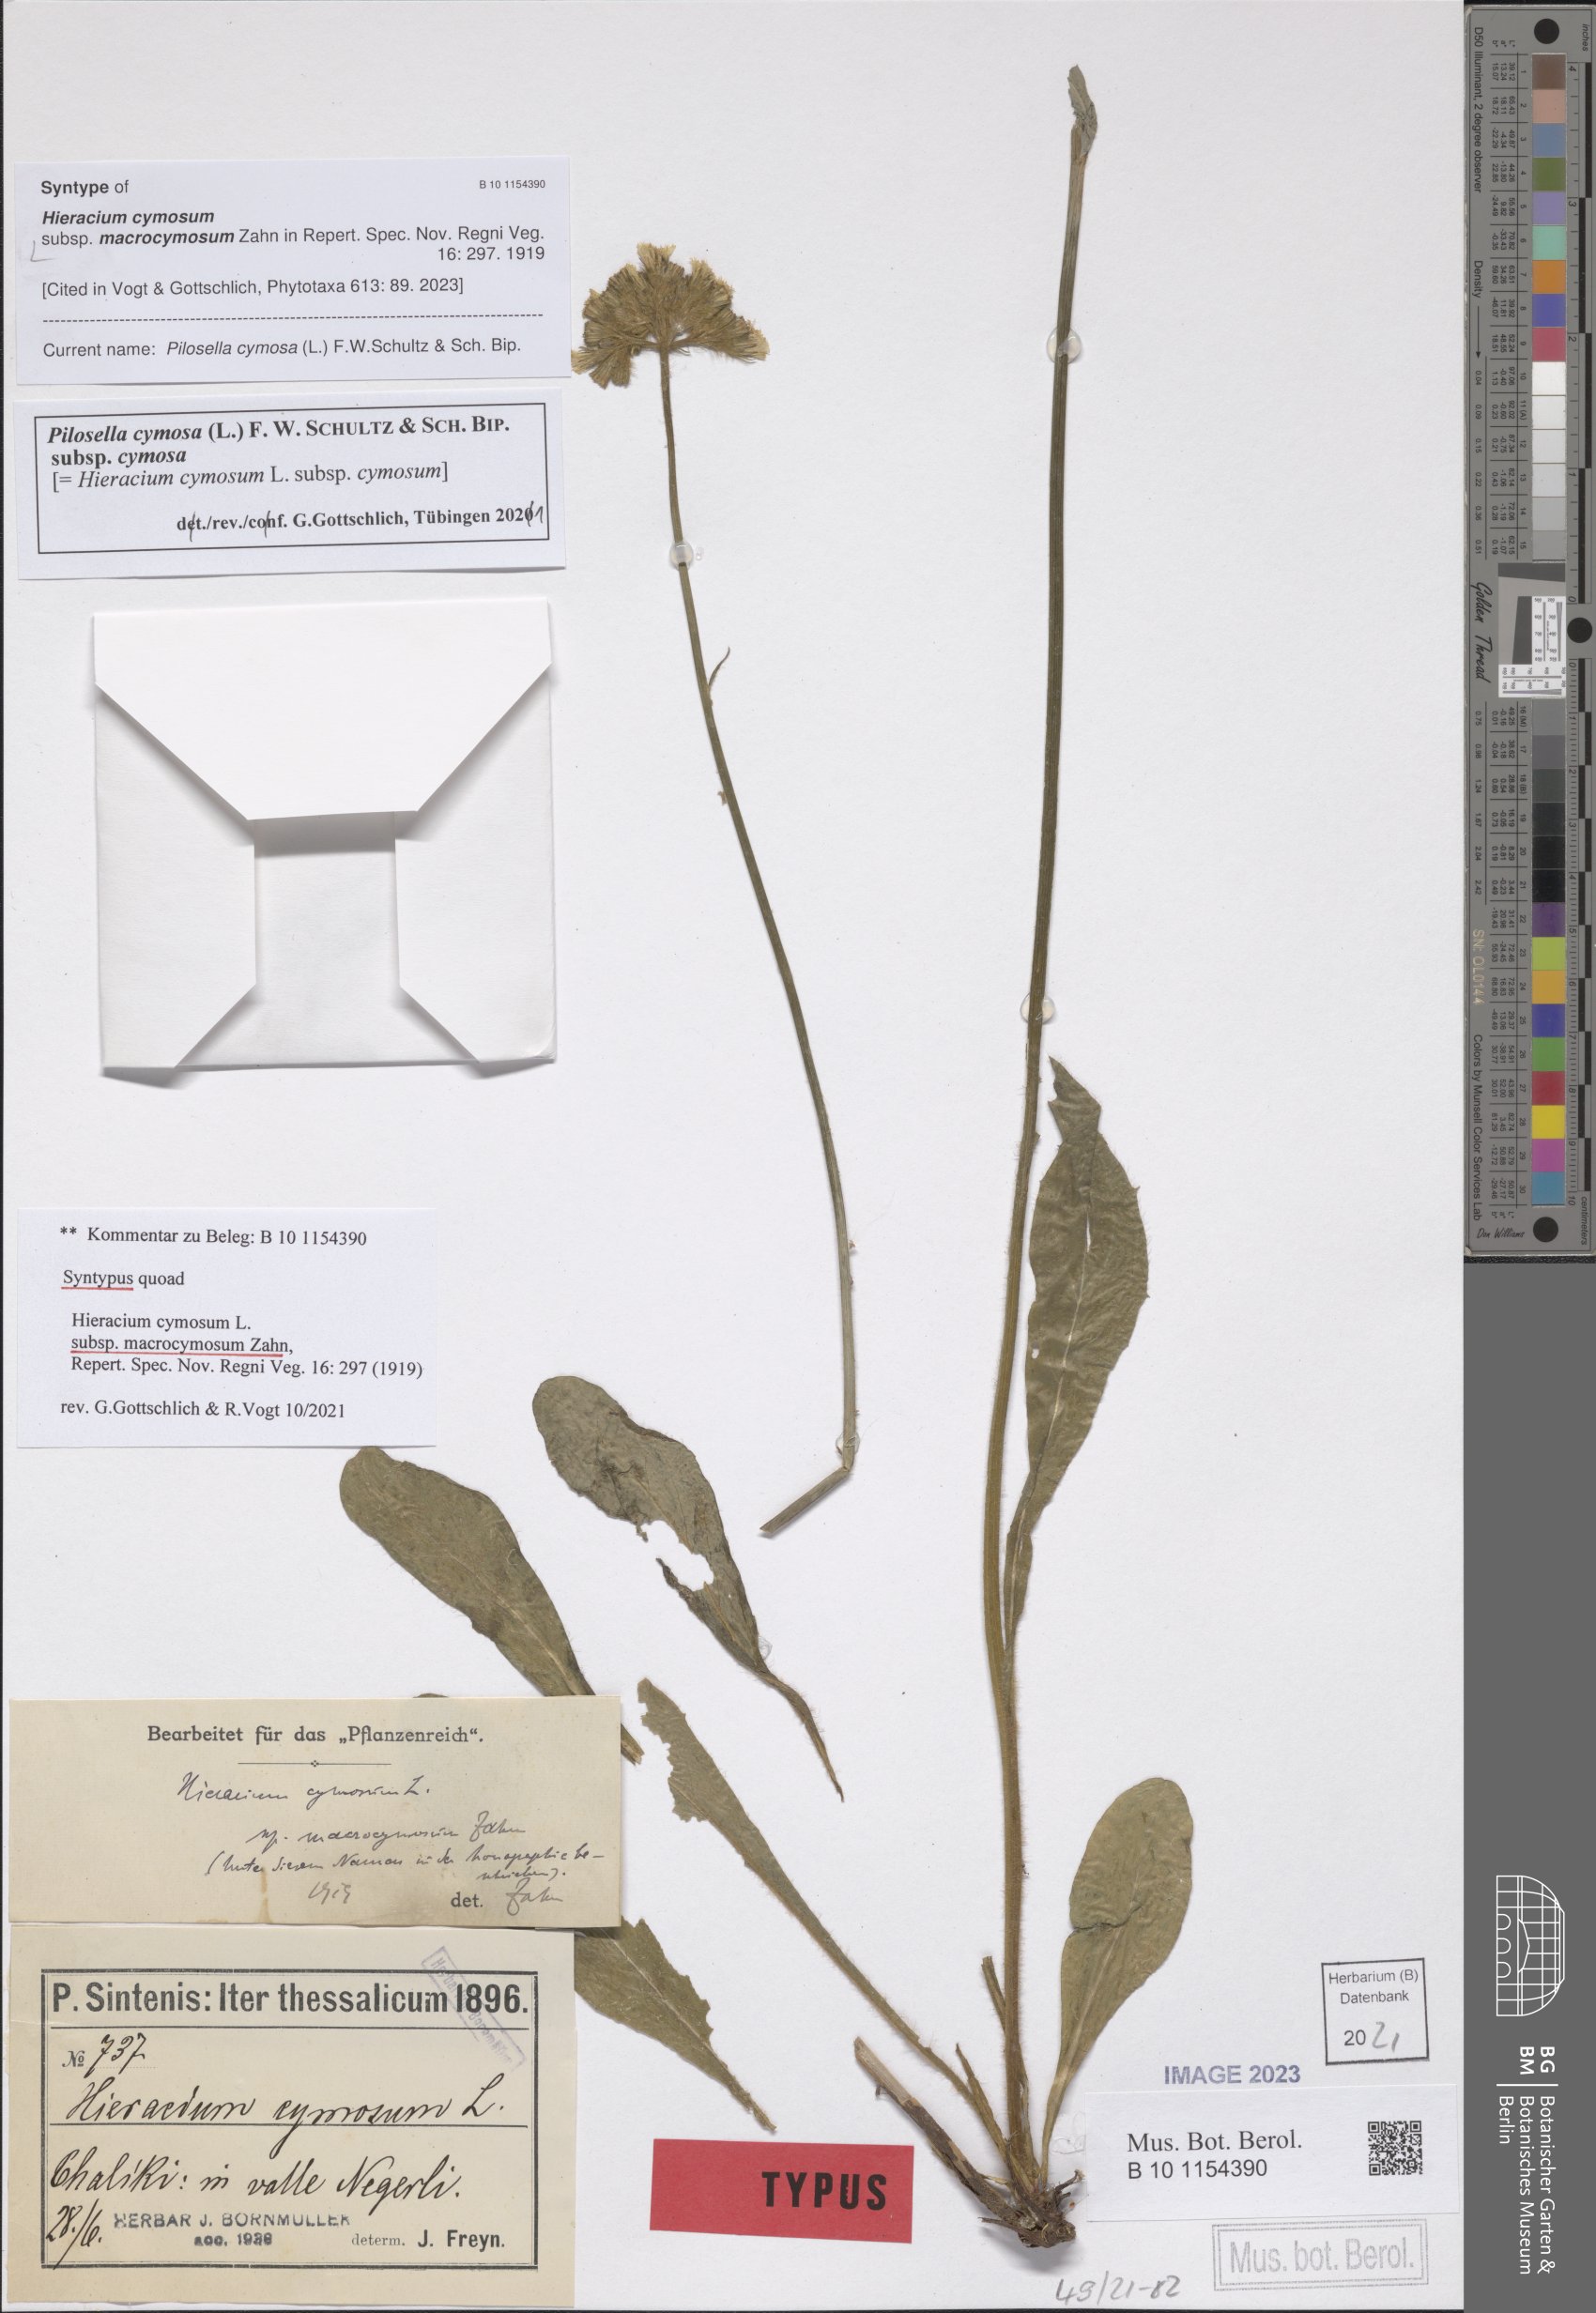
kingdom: Plantae
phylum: Tracheophyta
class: Magnoliopsida
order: Asterales
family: Asteraceae
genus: Pilosella
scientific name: Pilosella cymosa
